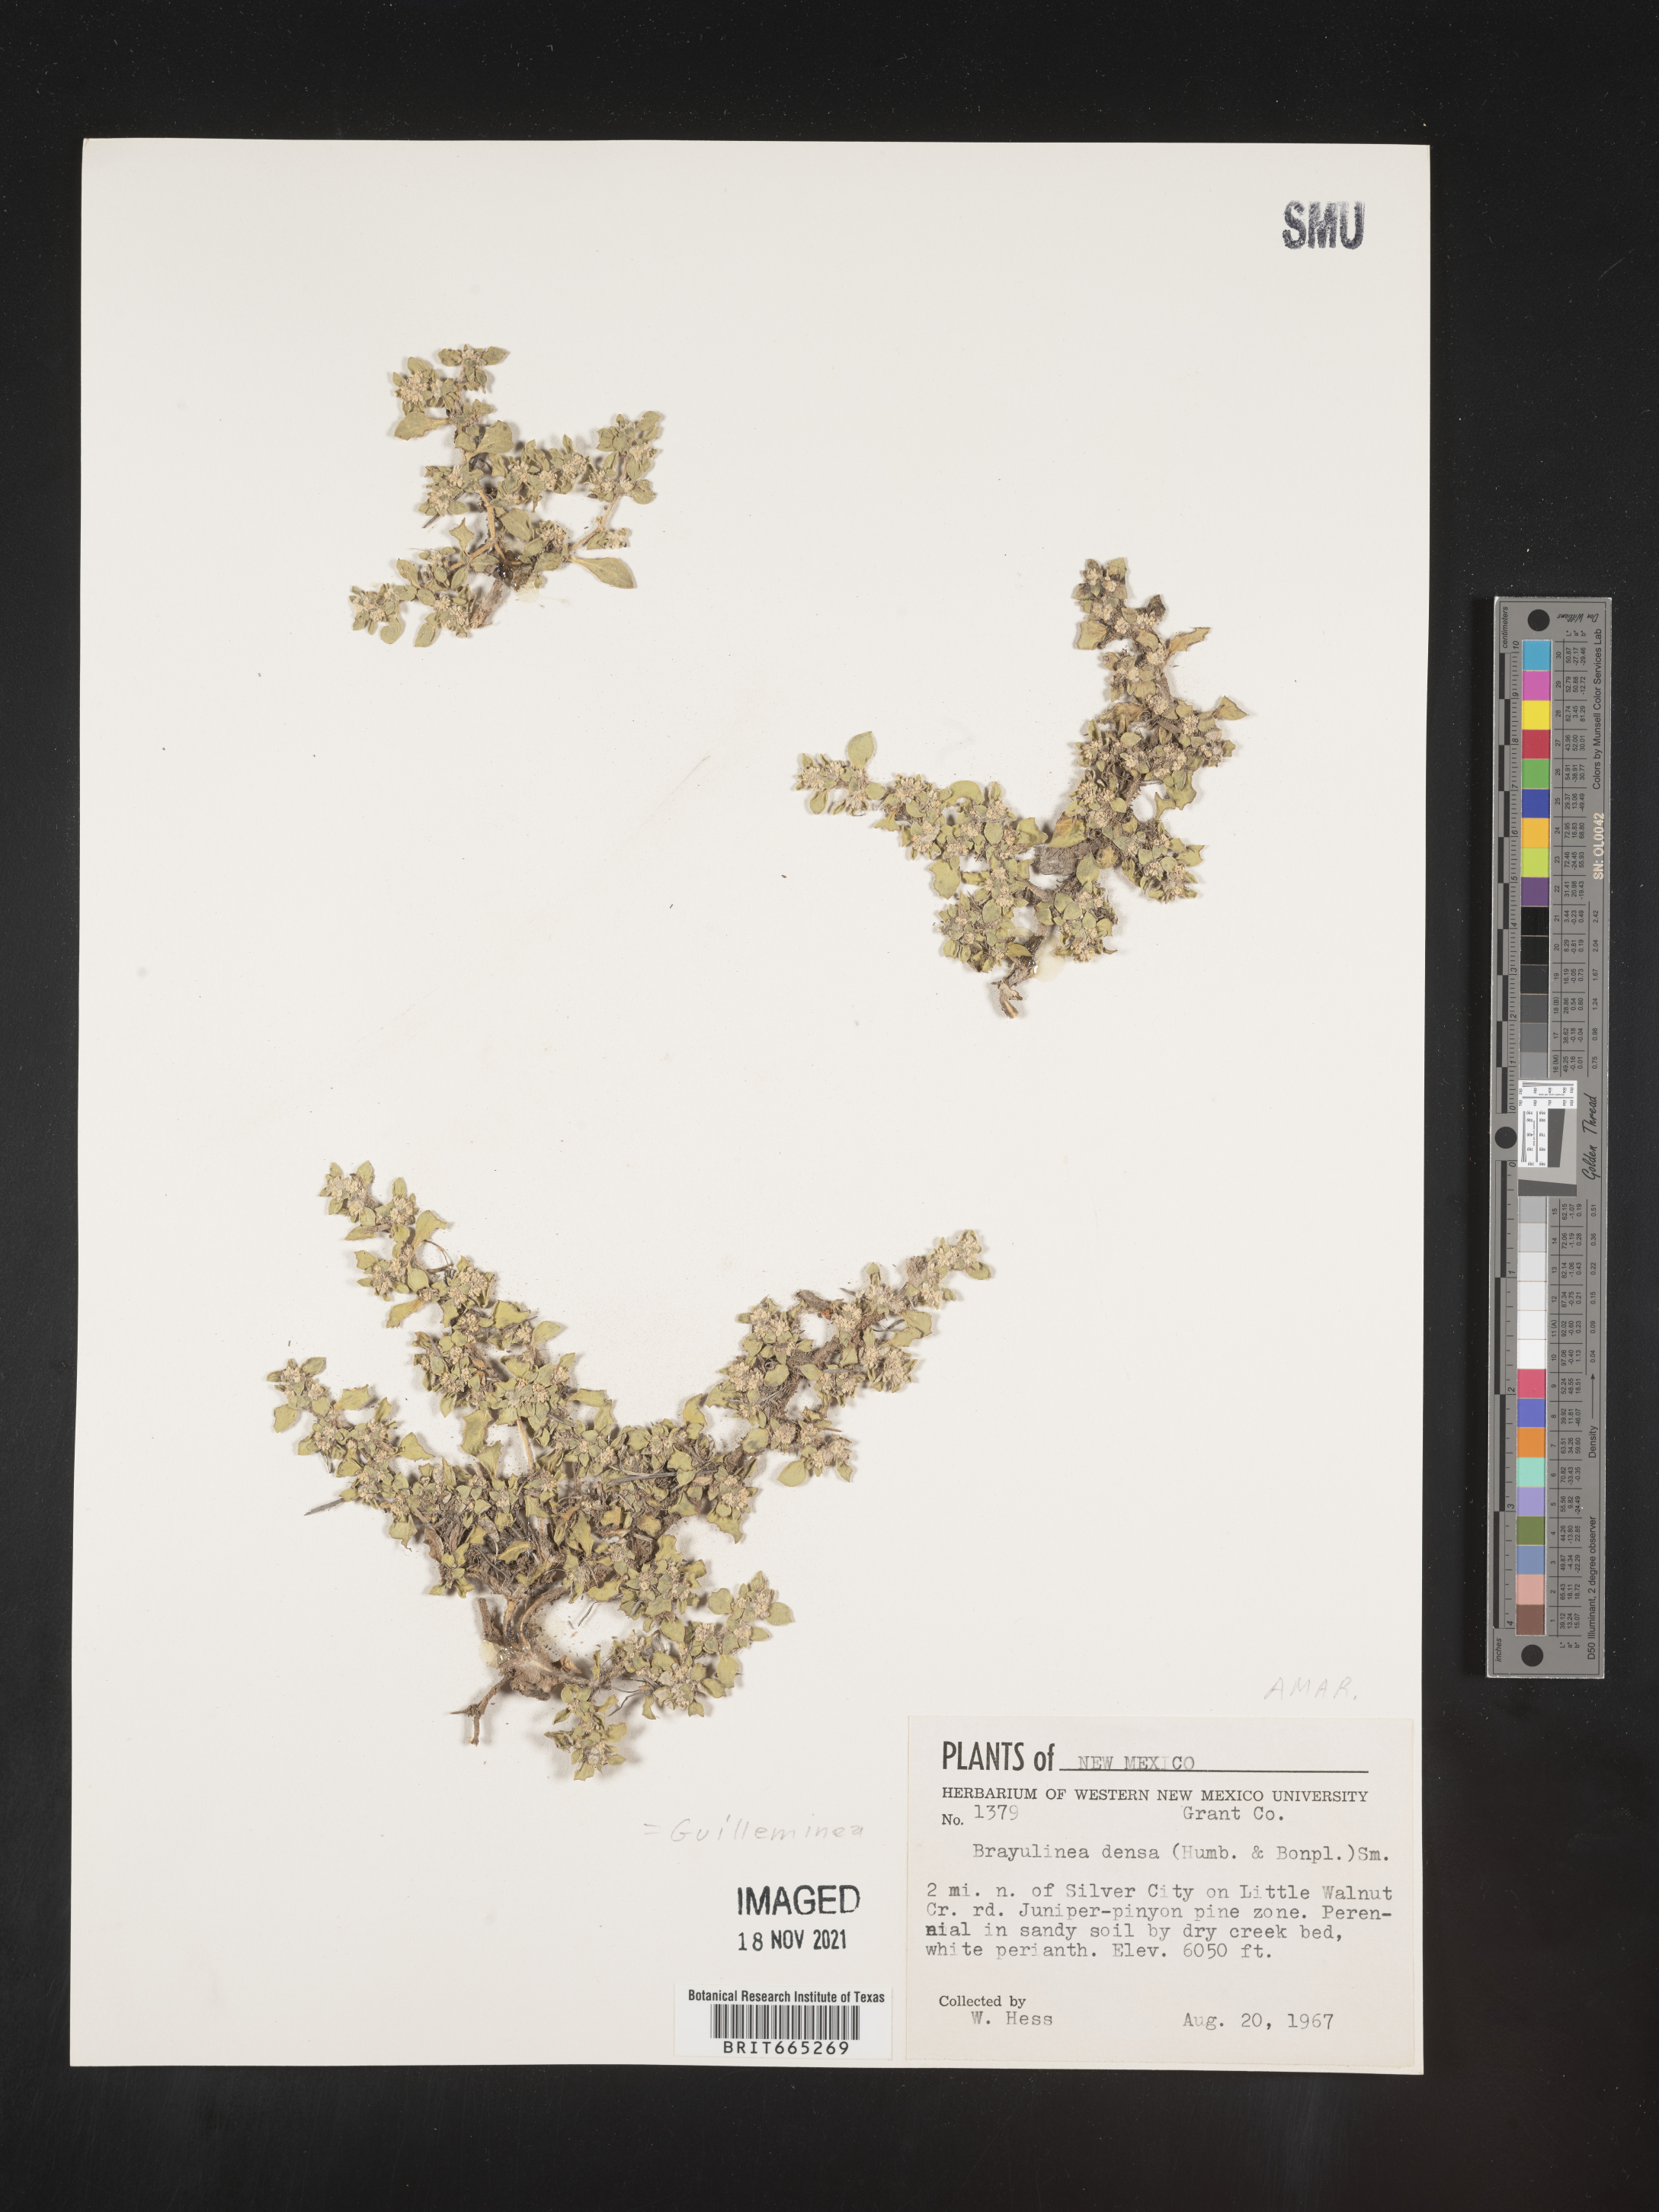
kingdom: Plantae
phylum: Tracheophyta
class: Magnoliopsida
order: Caryophyllales
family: Amaranthaceae
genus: Guilleminea
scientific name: Guilleminea densa
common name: Small matweed
